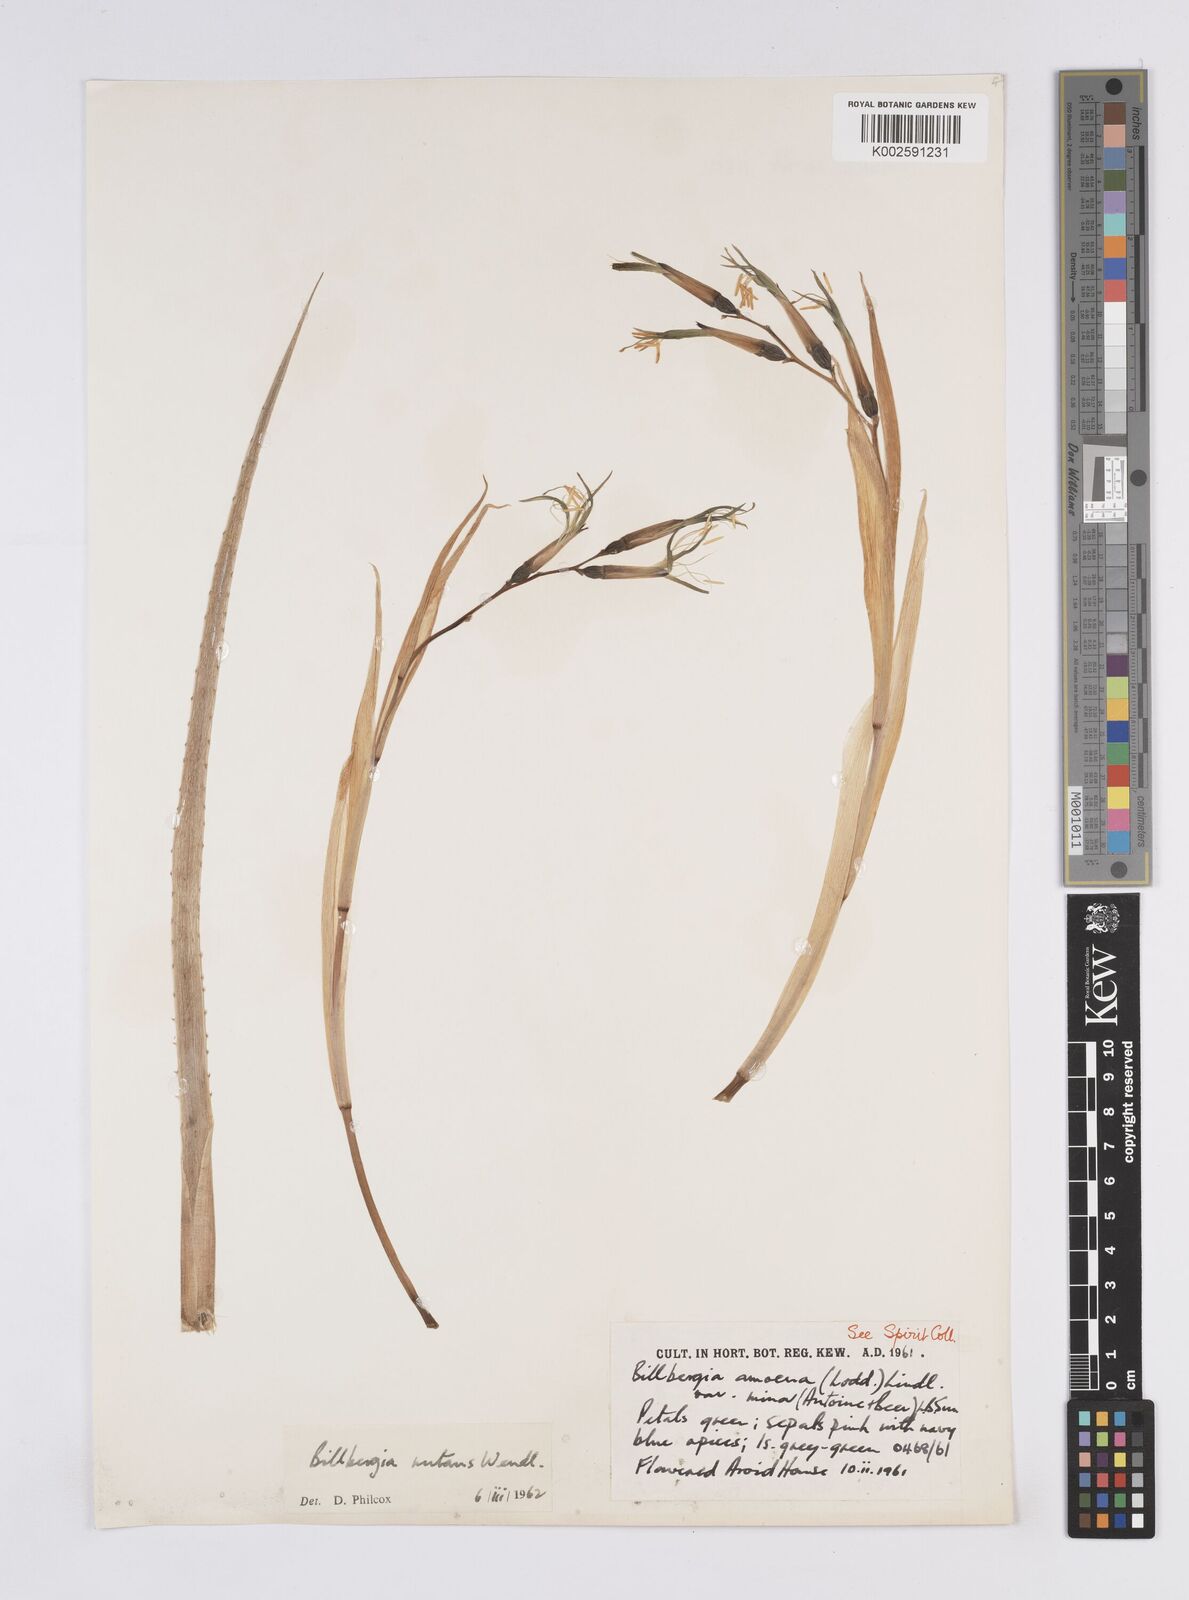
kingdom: Plantae
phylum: Tracheophyta
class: Liliopsida
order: Poales
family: Bromeliaceae
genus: Billbergia
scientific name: Billbergia nutans
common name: Friendship-plant
